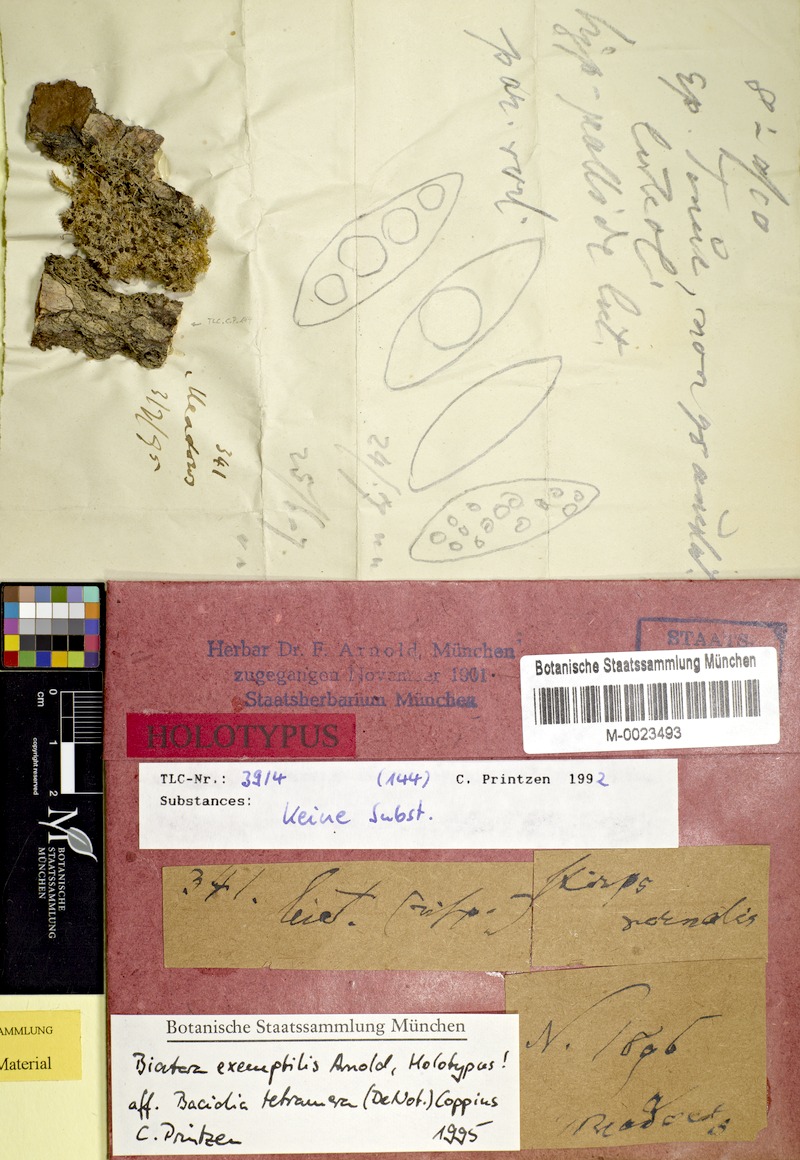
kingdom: Fungi
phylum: Ascomycota
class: Lecanoromycetes
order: Lecanorales
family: Ramalinaceae
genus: Bilimbia
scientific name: Bilimbia tetramera
